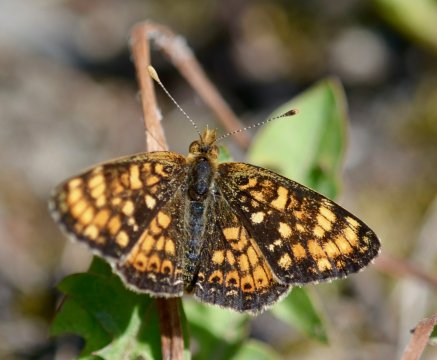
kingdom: Animalia
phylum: Arthropoda
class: Insecta
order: Lepidoptera
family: Nymphalidae
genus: Phyciodes
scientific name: Phyciodes tharos
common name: Field Crescent
